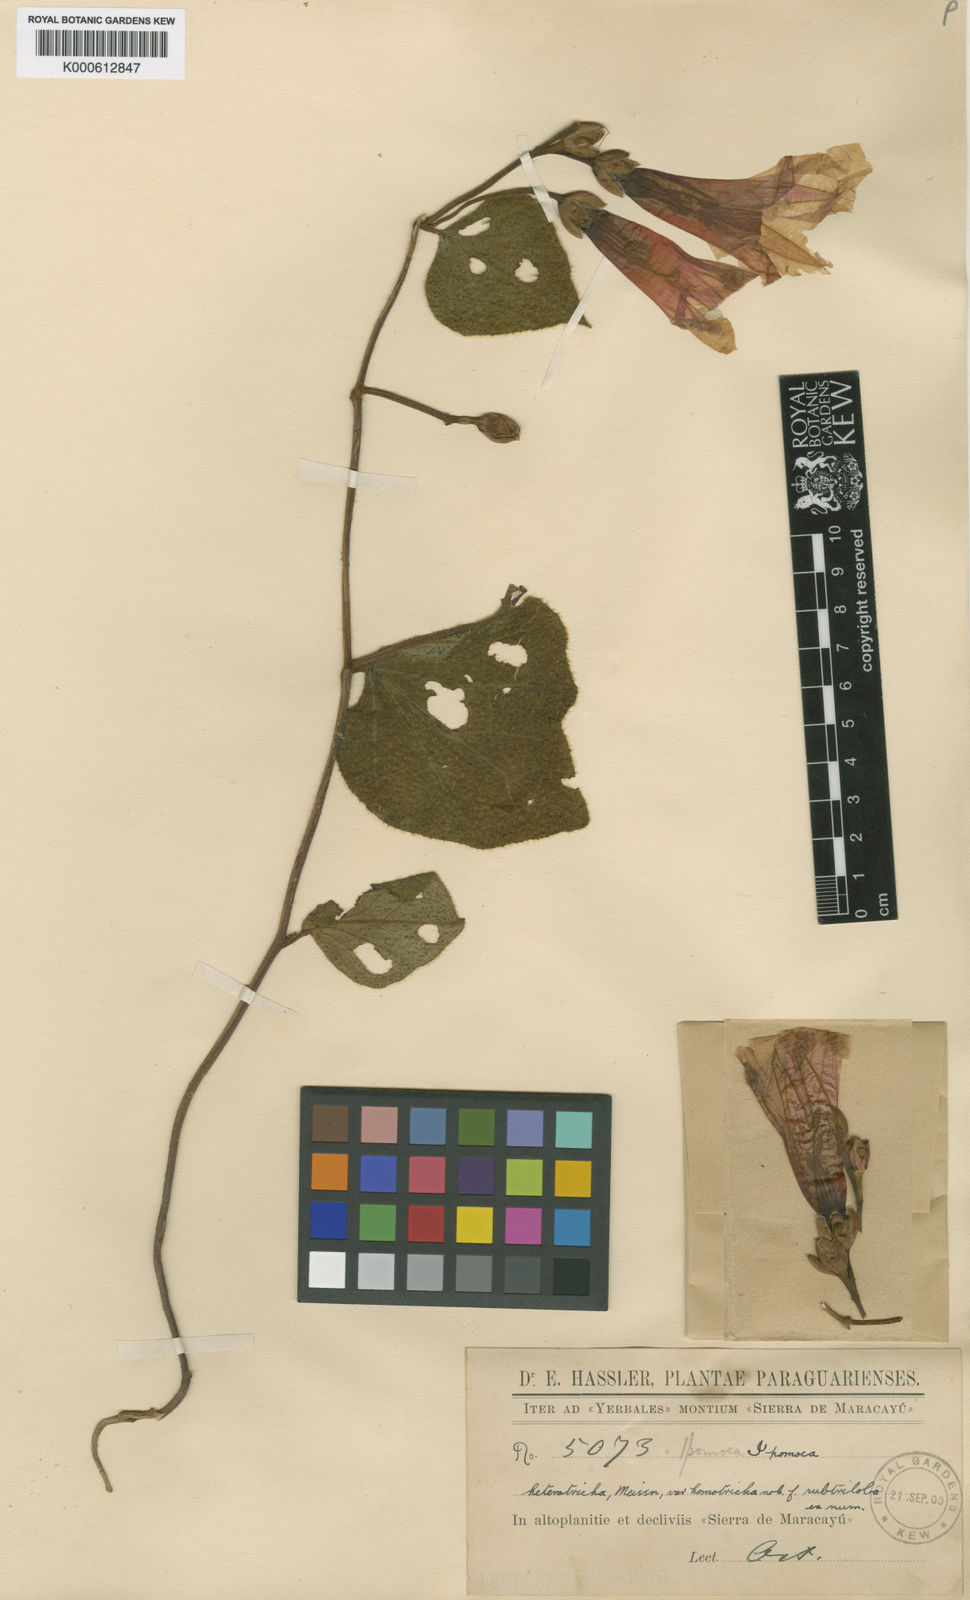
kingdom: Plantae
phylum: Tracheophyta
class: Magnoliopsida
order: Solanales
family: Convolvulaceae
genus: Ipomoea
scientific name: Ipomoea bonariensis
